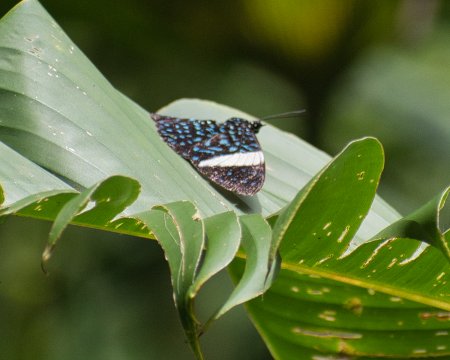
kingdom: Animalia
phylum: Arthropoda
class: Insecta
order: Lepidoptera
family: Nymphalidae
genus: Hamadryas
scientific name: Hamadryas laodamia
